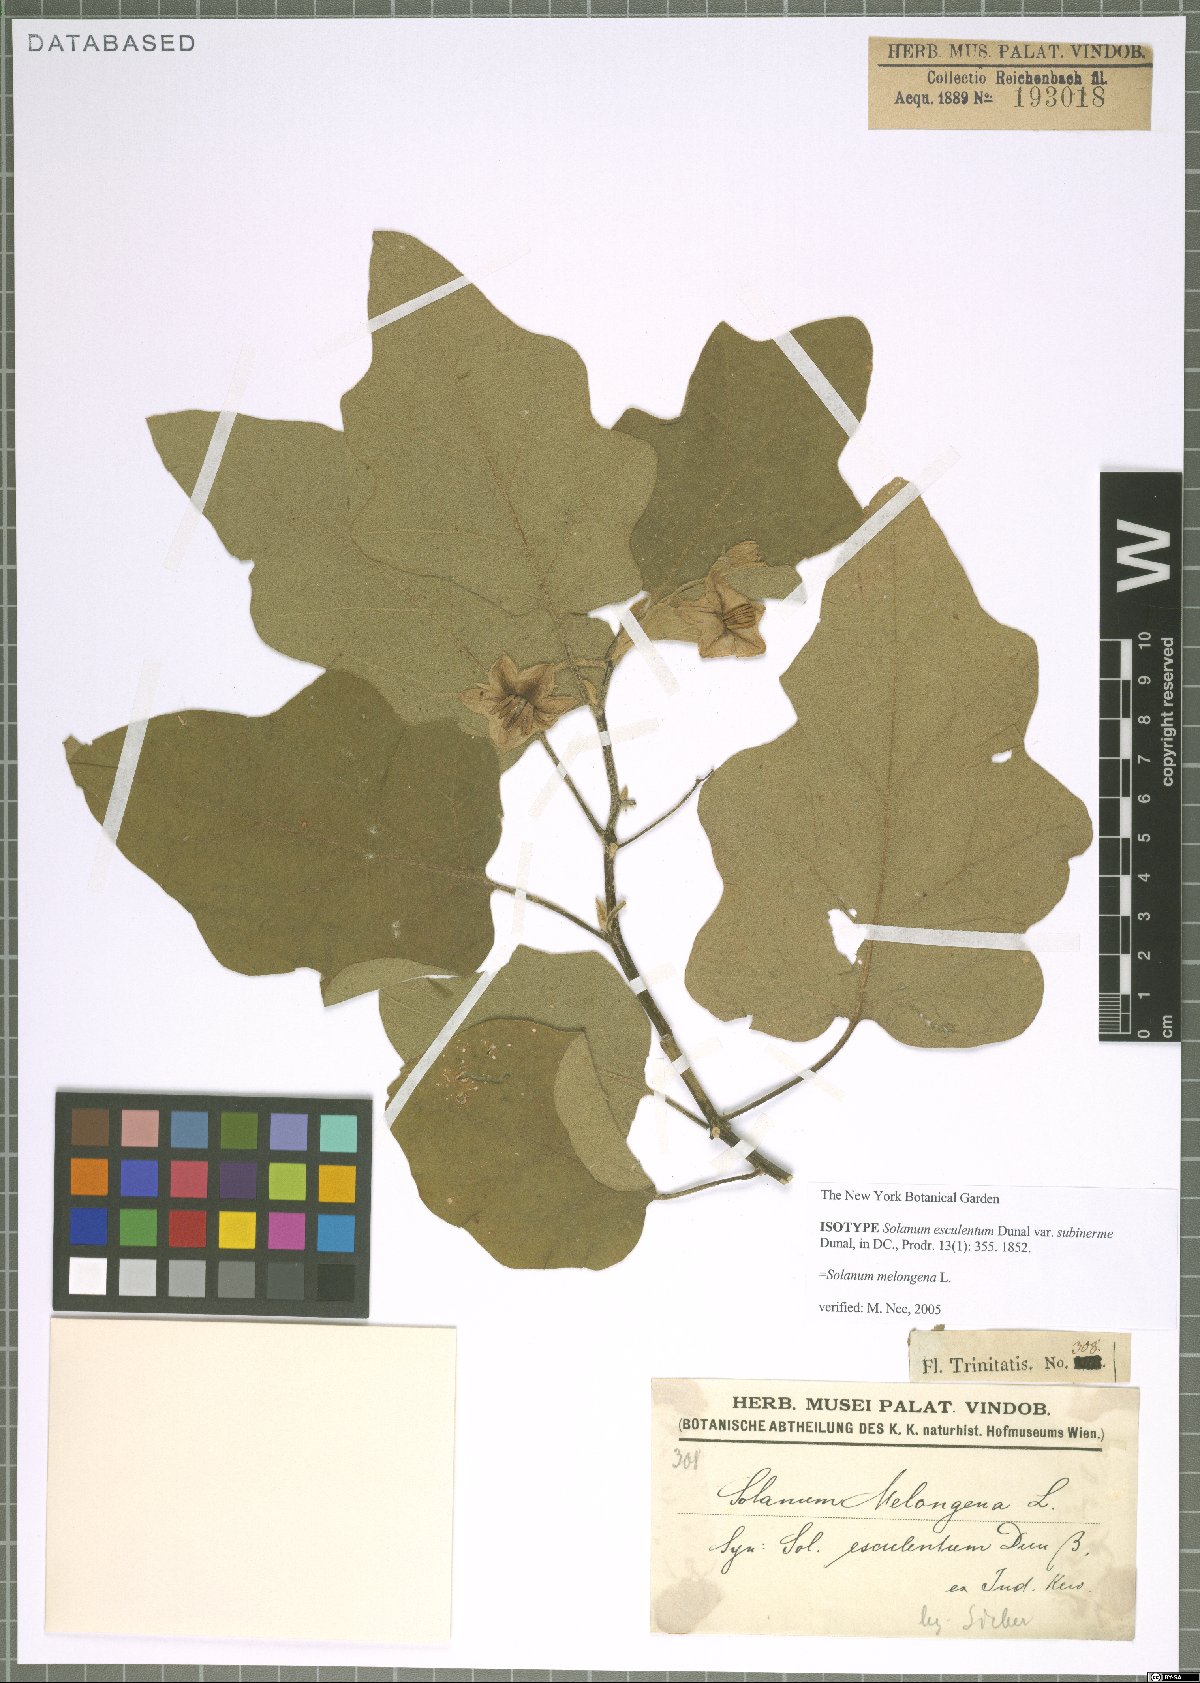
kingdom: Plantae
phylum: Tracheophyta
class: Magnoliopsida
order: Solanales
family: Solanaceae
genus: Solanum
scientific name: Solanum melongena
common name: Eggplant
